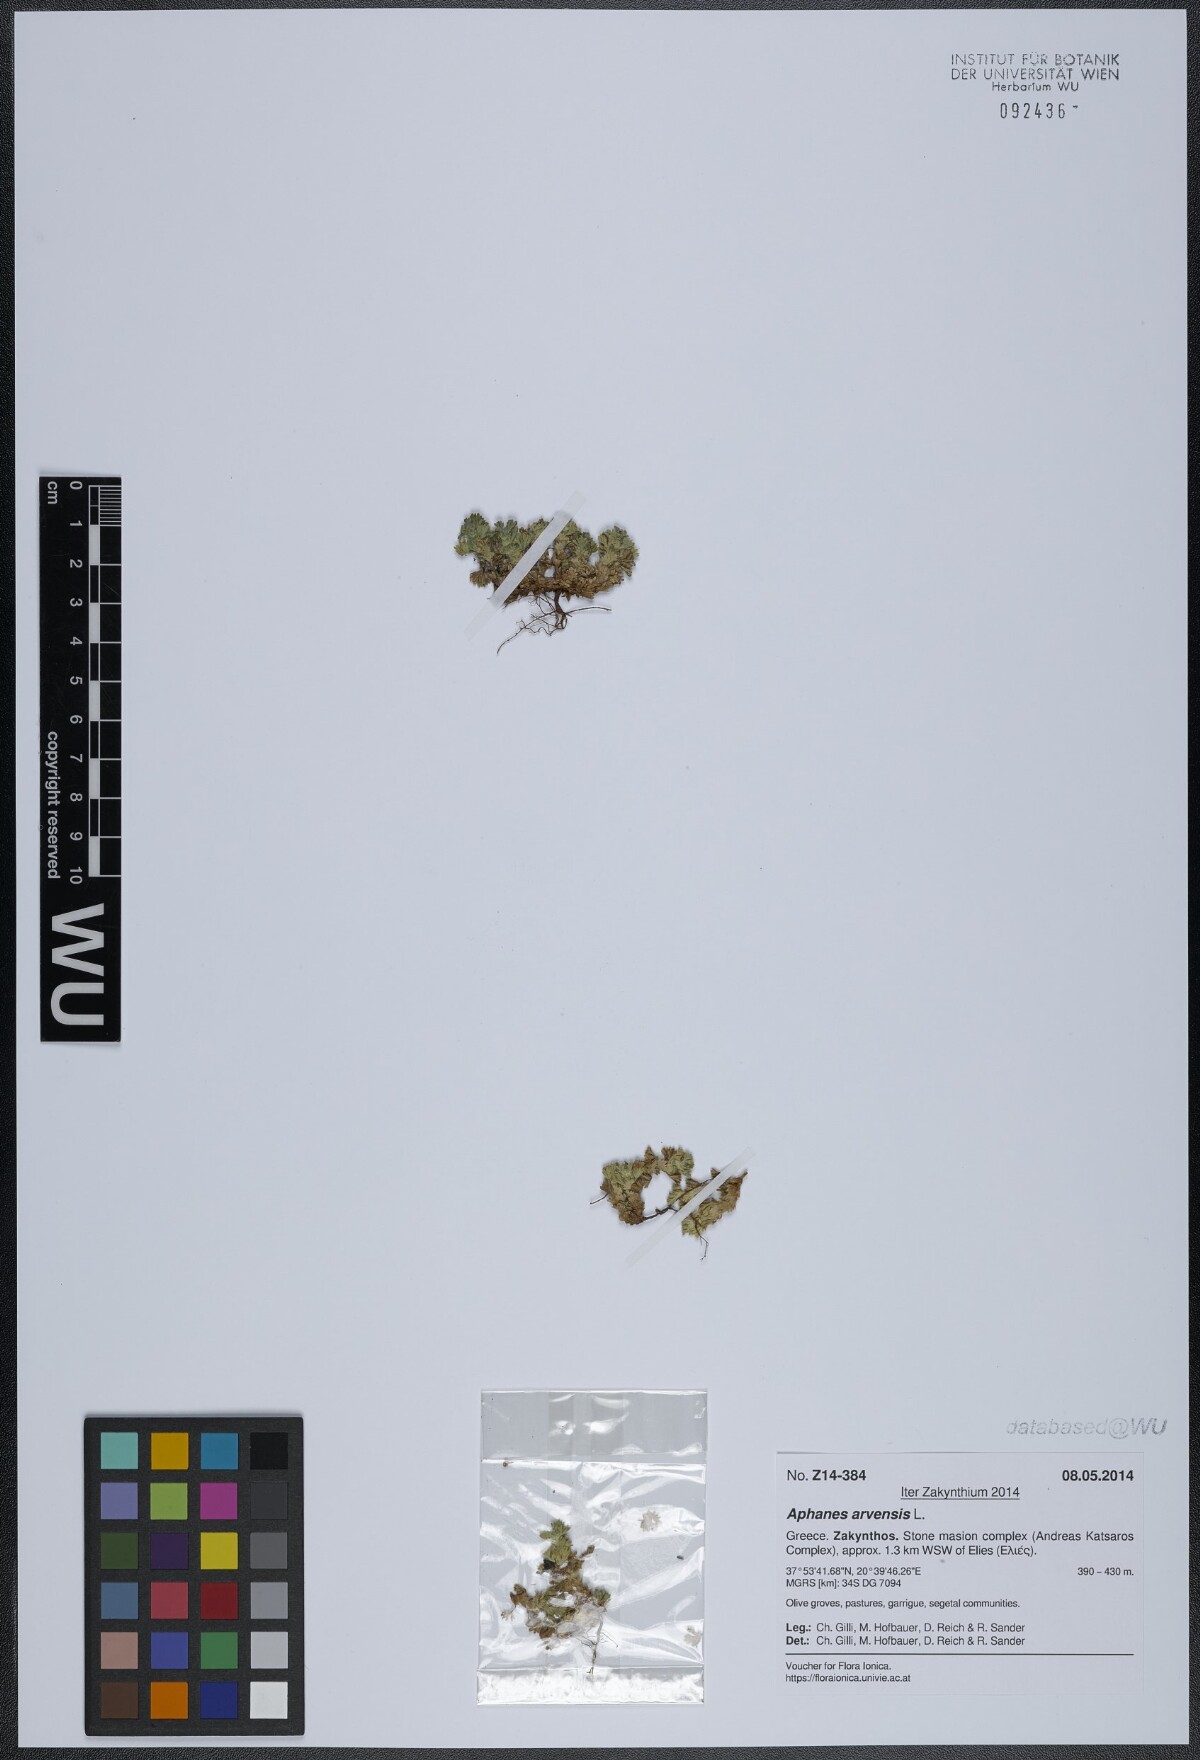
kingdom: Plantae
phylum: Tracheophyta
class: Magnoliopsida
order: Rosales
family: Rosaceae
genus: Aphanes
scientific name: Aphanes arvensis
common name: Parsley-piert
